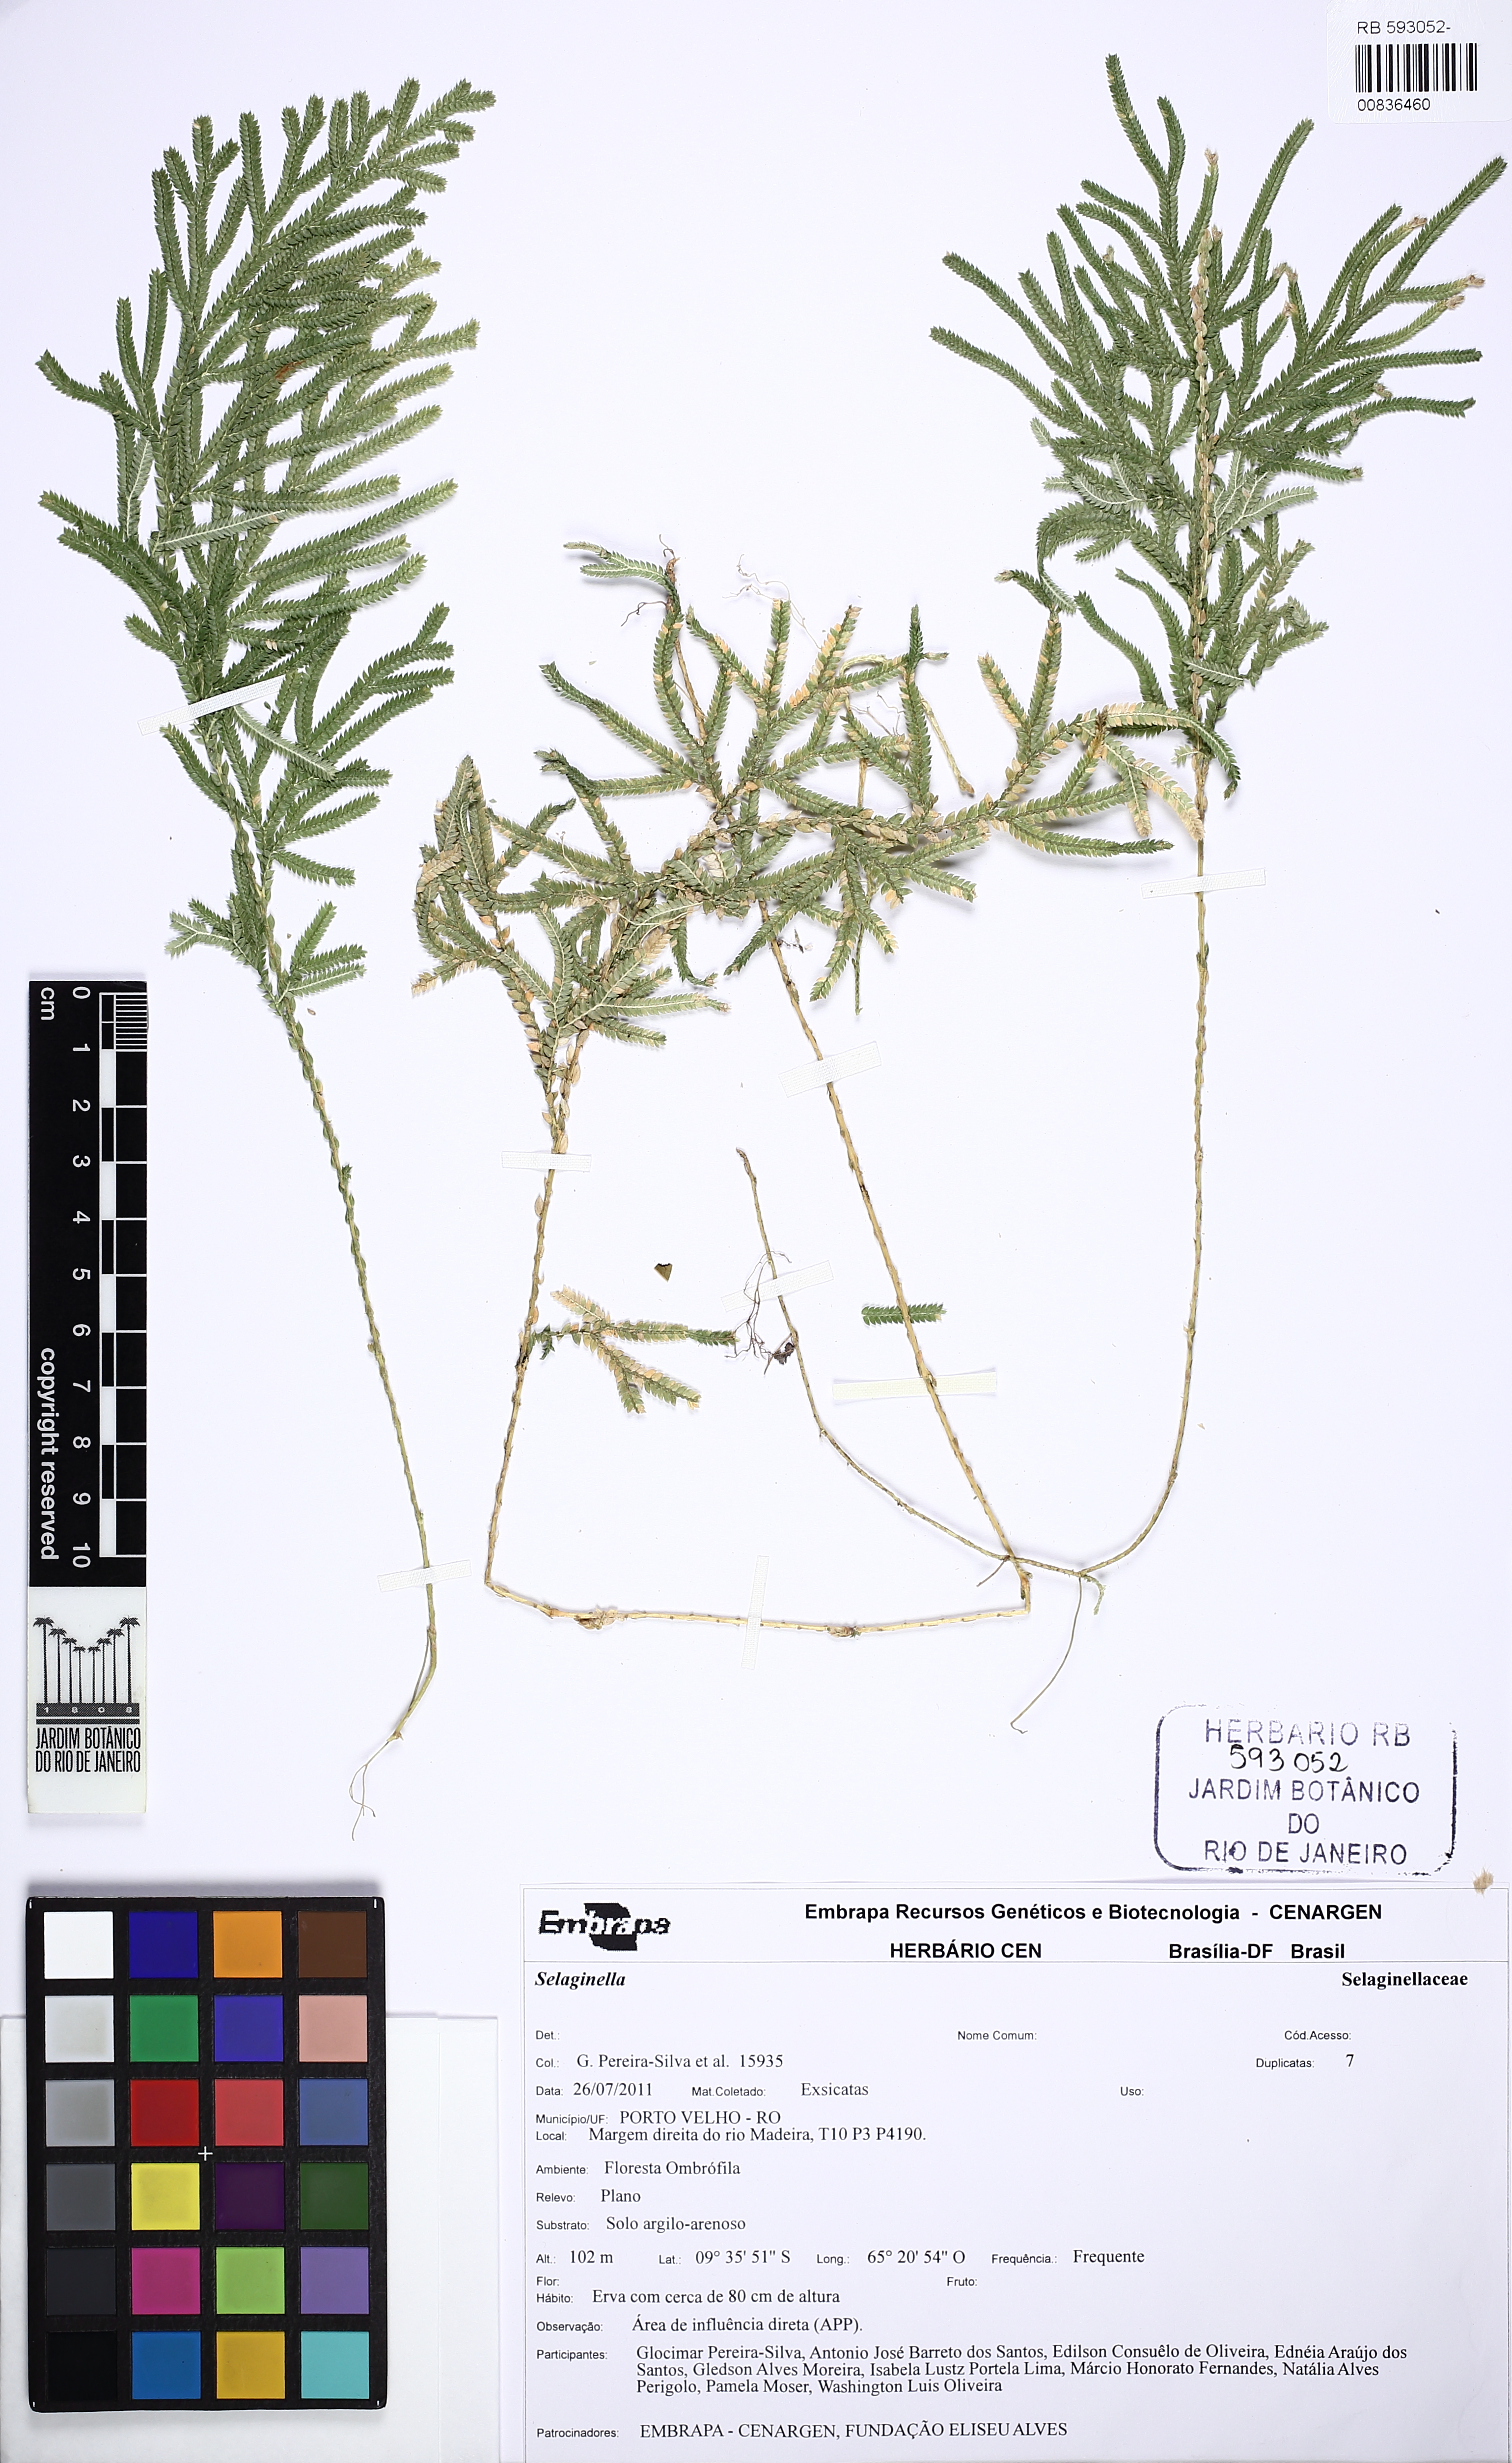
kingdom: Plantae
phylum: Tracheophyta
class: Lycopodiopsida
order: Selaginellales
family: Selaginellaceae
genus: Selaginella
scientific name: Selaginella asperula
